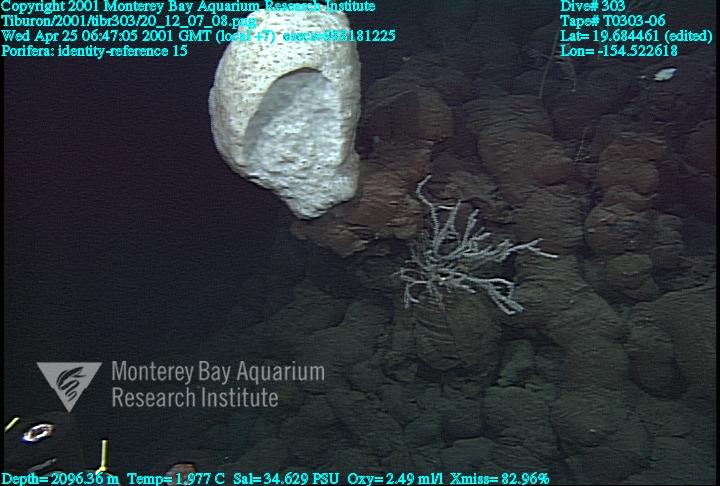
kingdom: Animalia
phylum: Porifera
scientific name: Porifera
